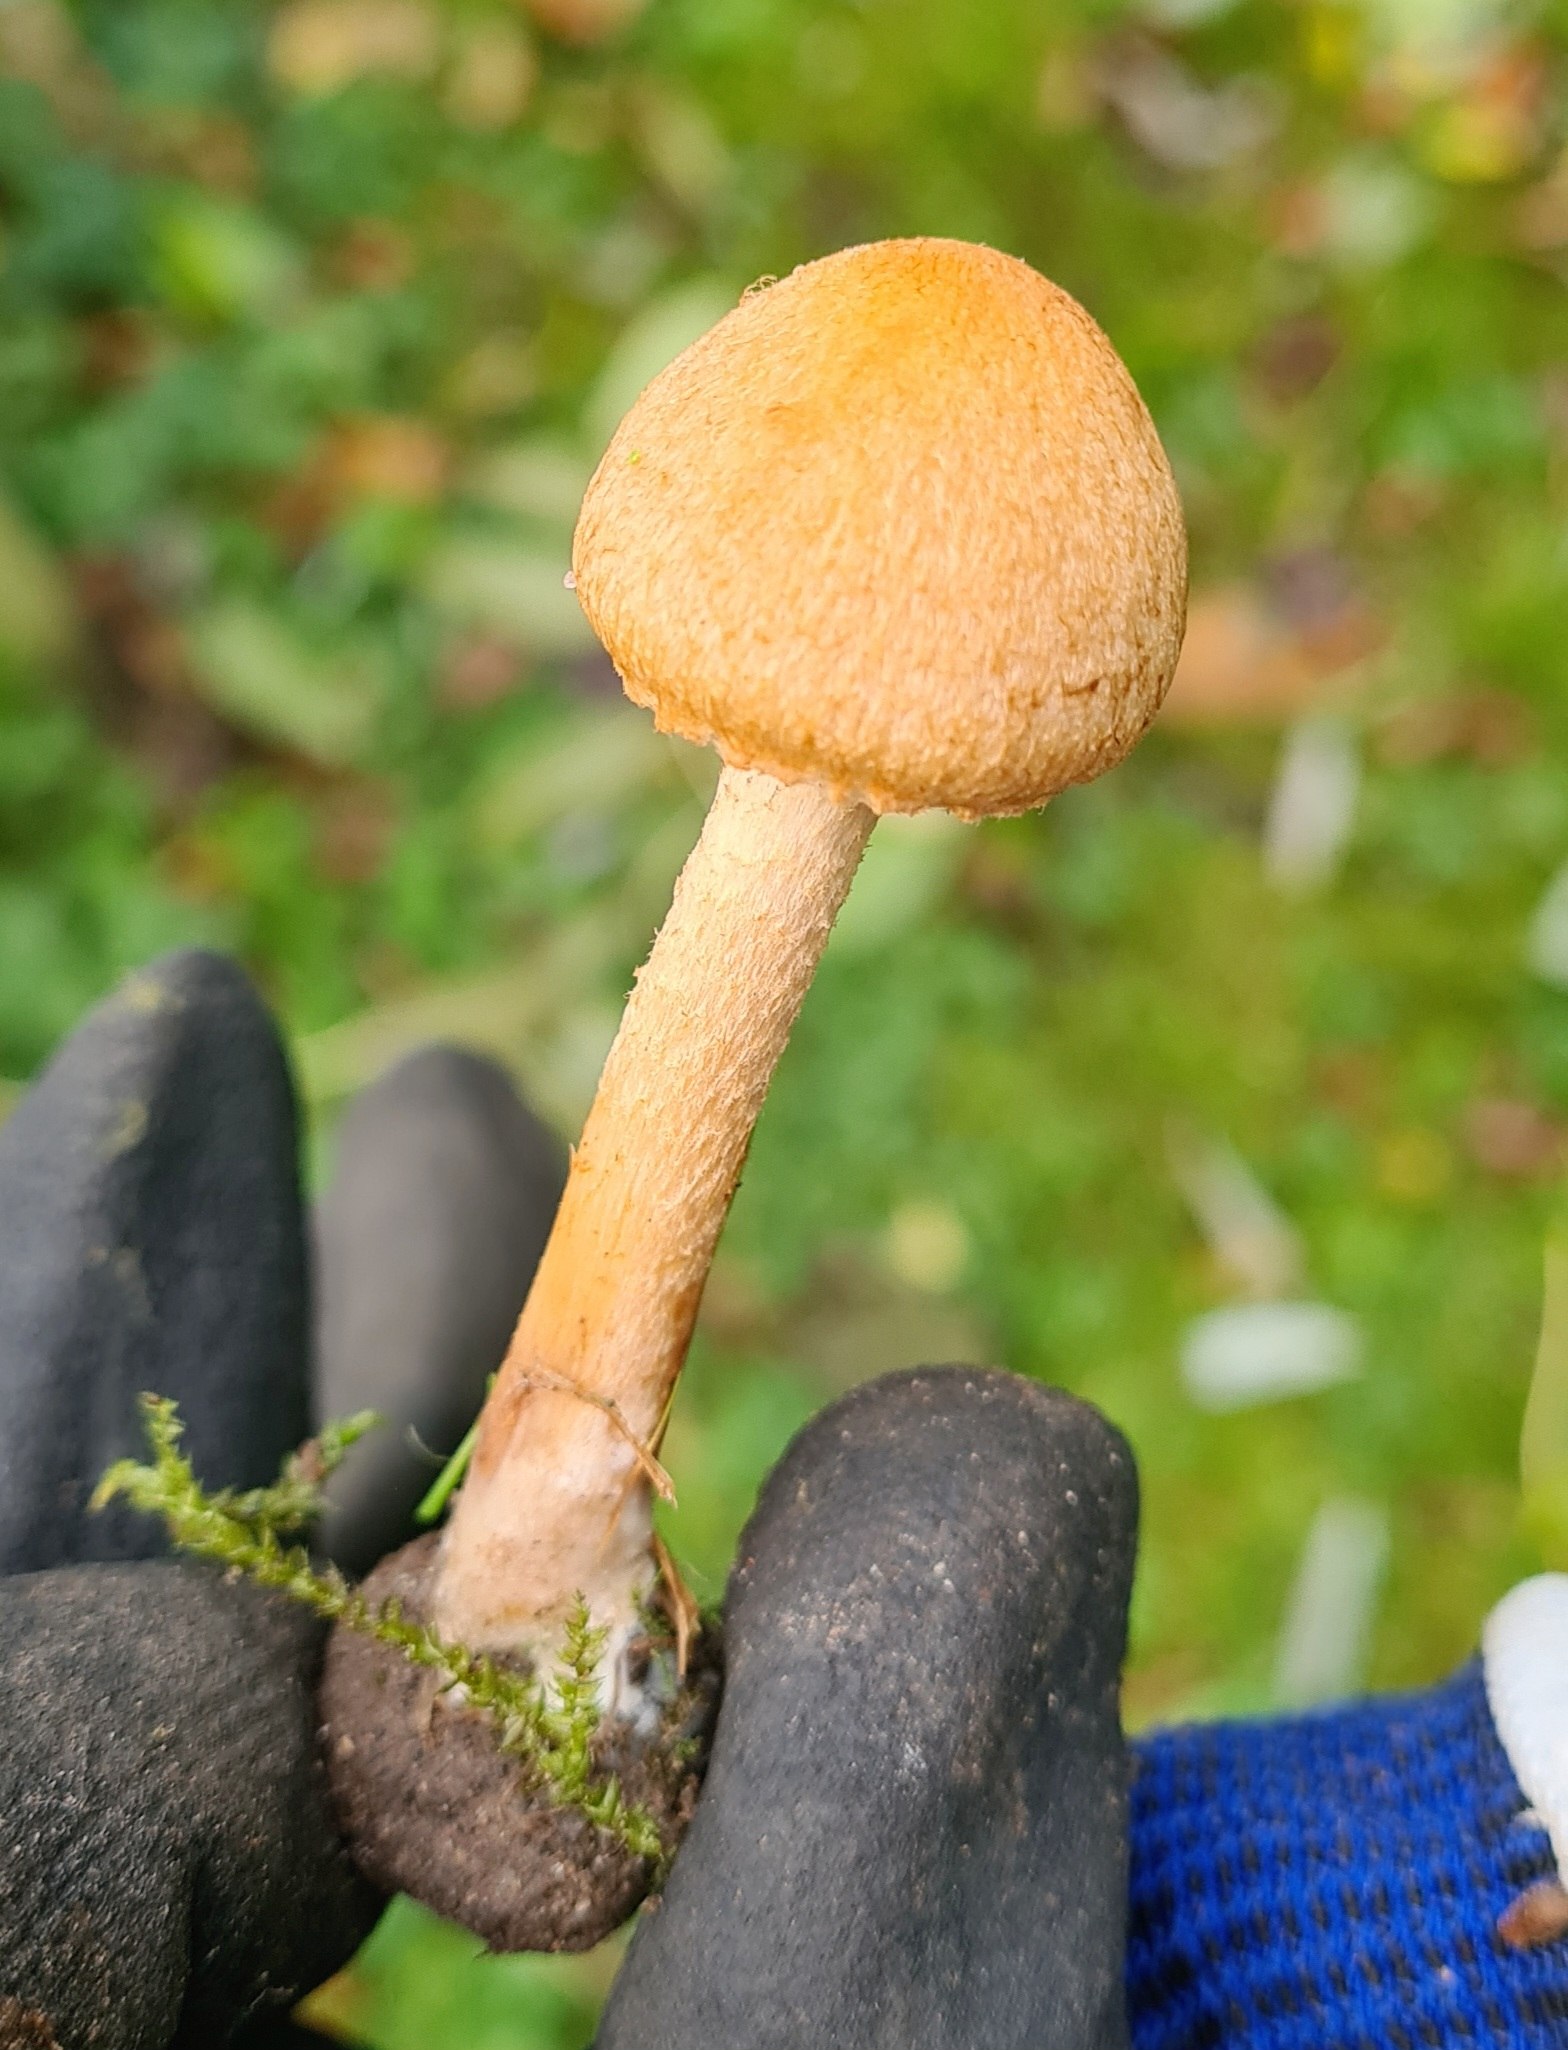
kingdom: Fungi
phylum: Basidiomycota
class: Agaricomycetes
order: Agaricales
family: Psathyrellaceae
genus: Lacrymaria
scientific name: Lacrymaria pyrotricha
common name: ildhåret mørkhat
